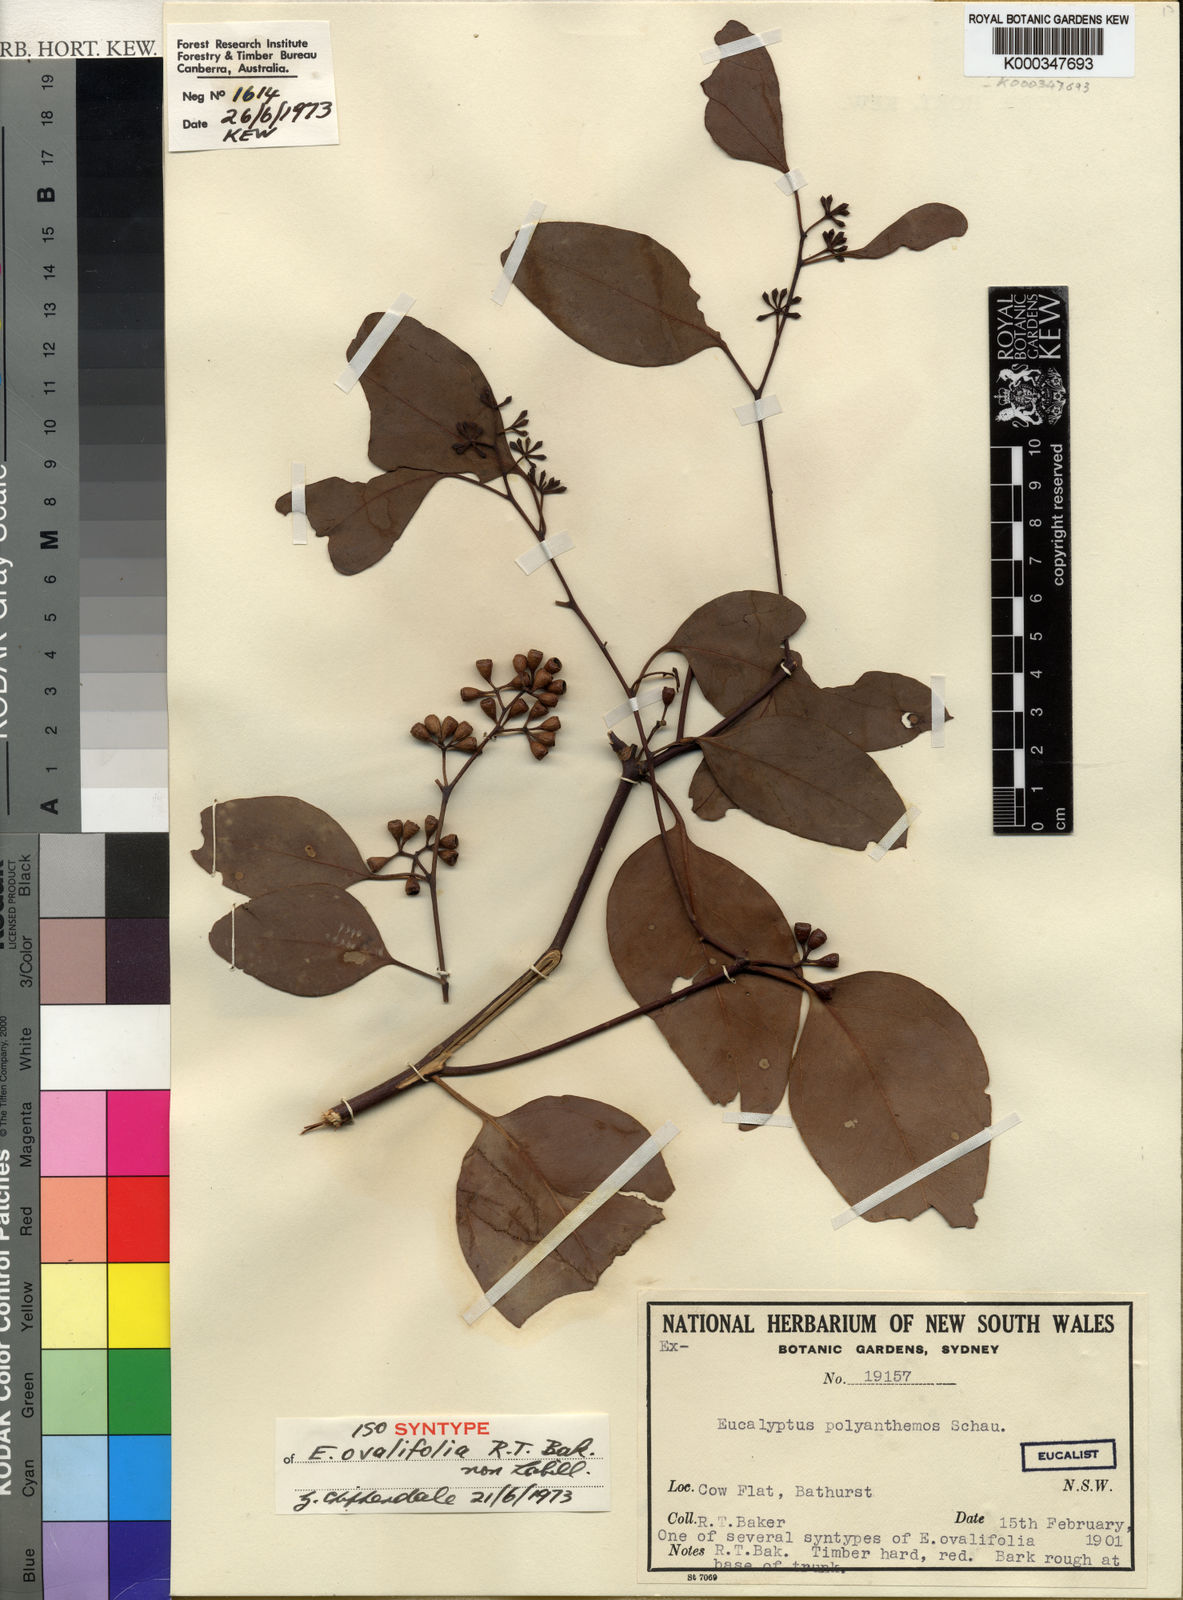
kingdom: Plantae
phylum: Tracheophyta
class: Magnoliopsida
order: Myrtales
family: Myrtaceae
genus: Eucalyptus
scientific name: Eucalyptus polyanthemos
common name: Red-box
